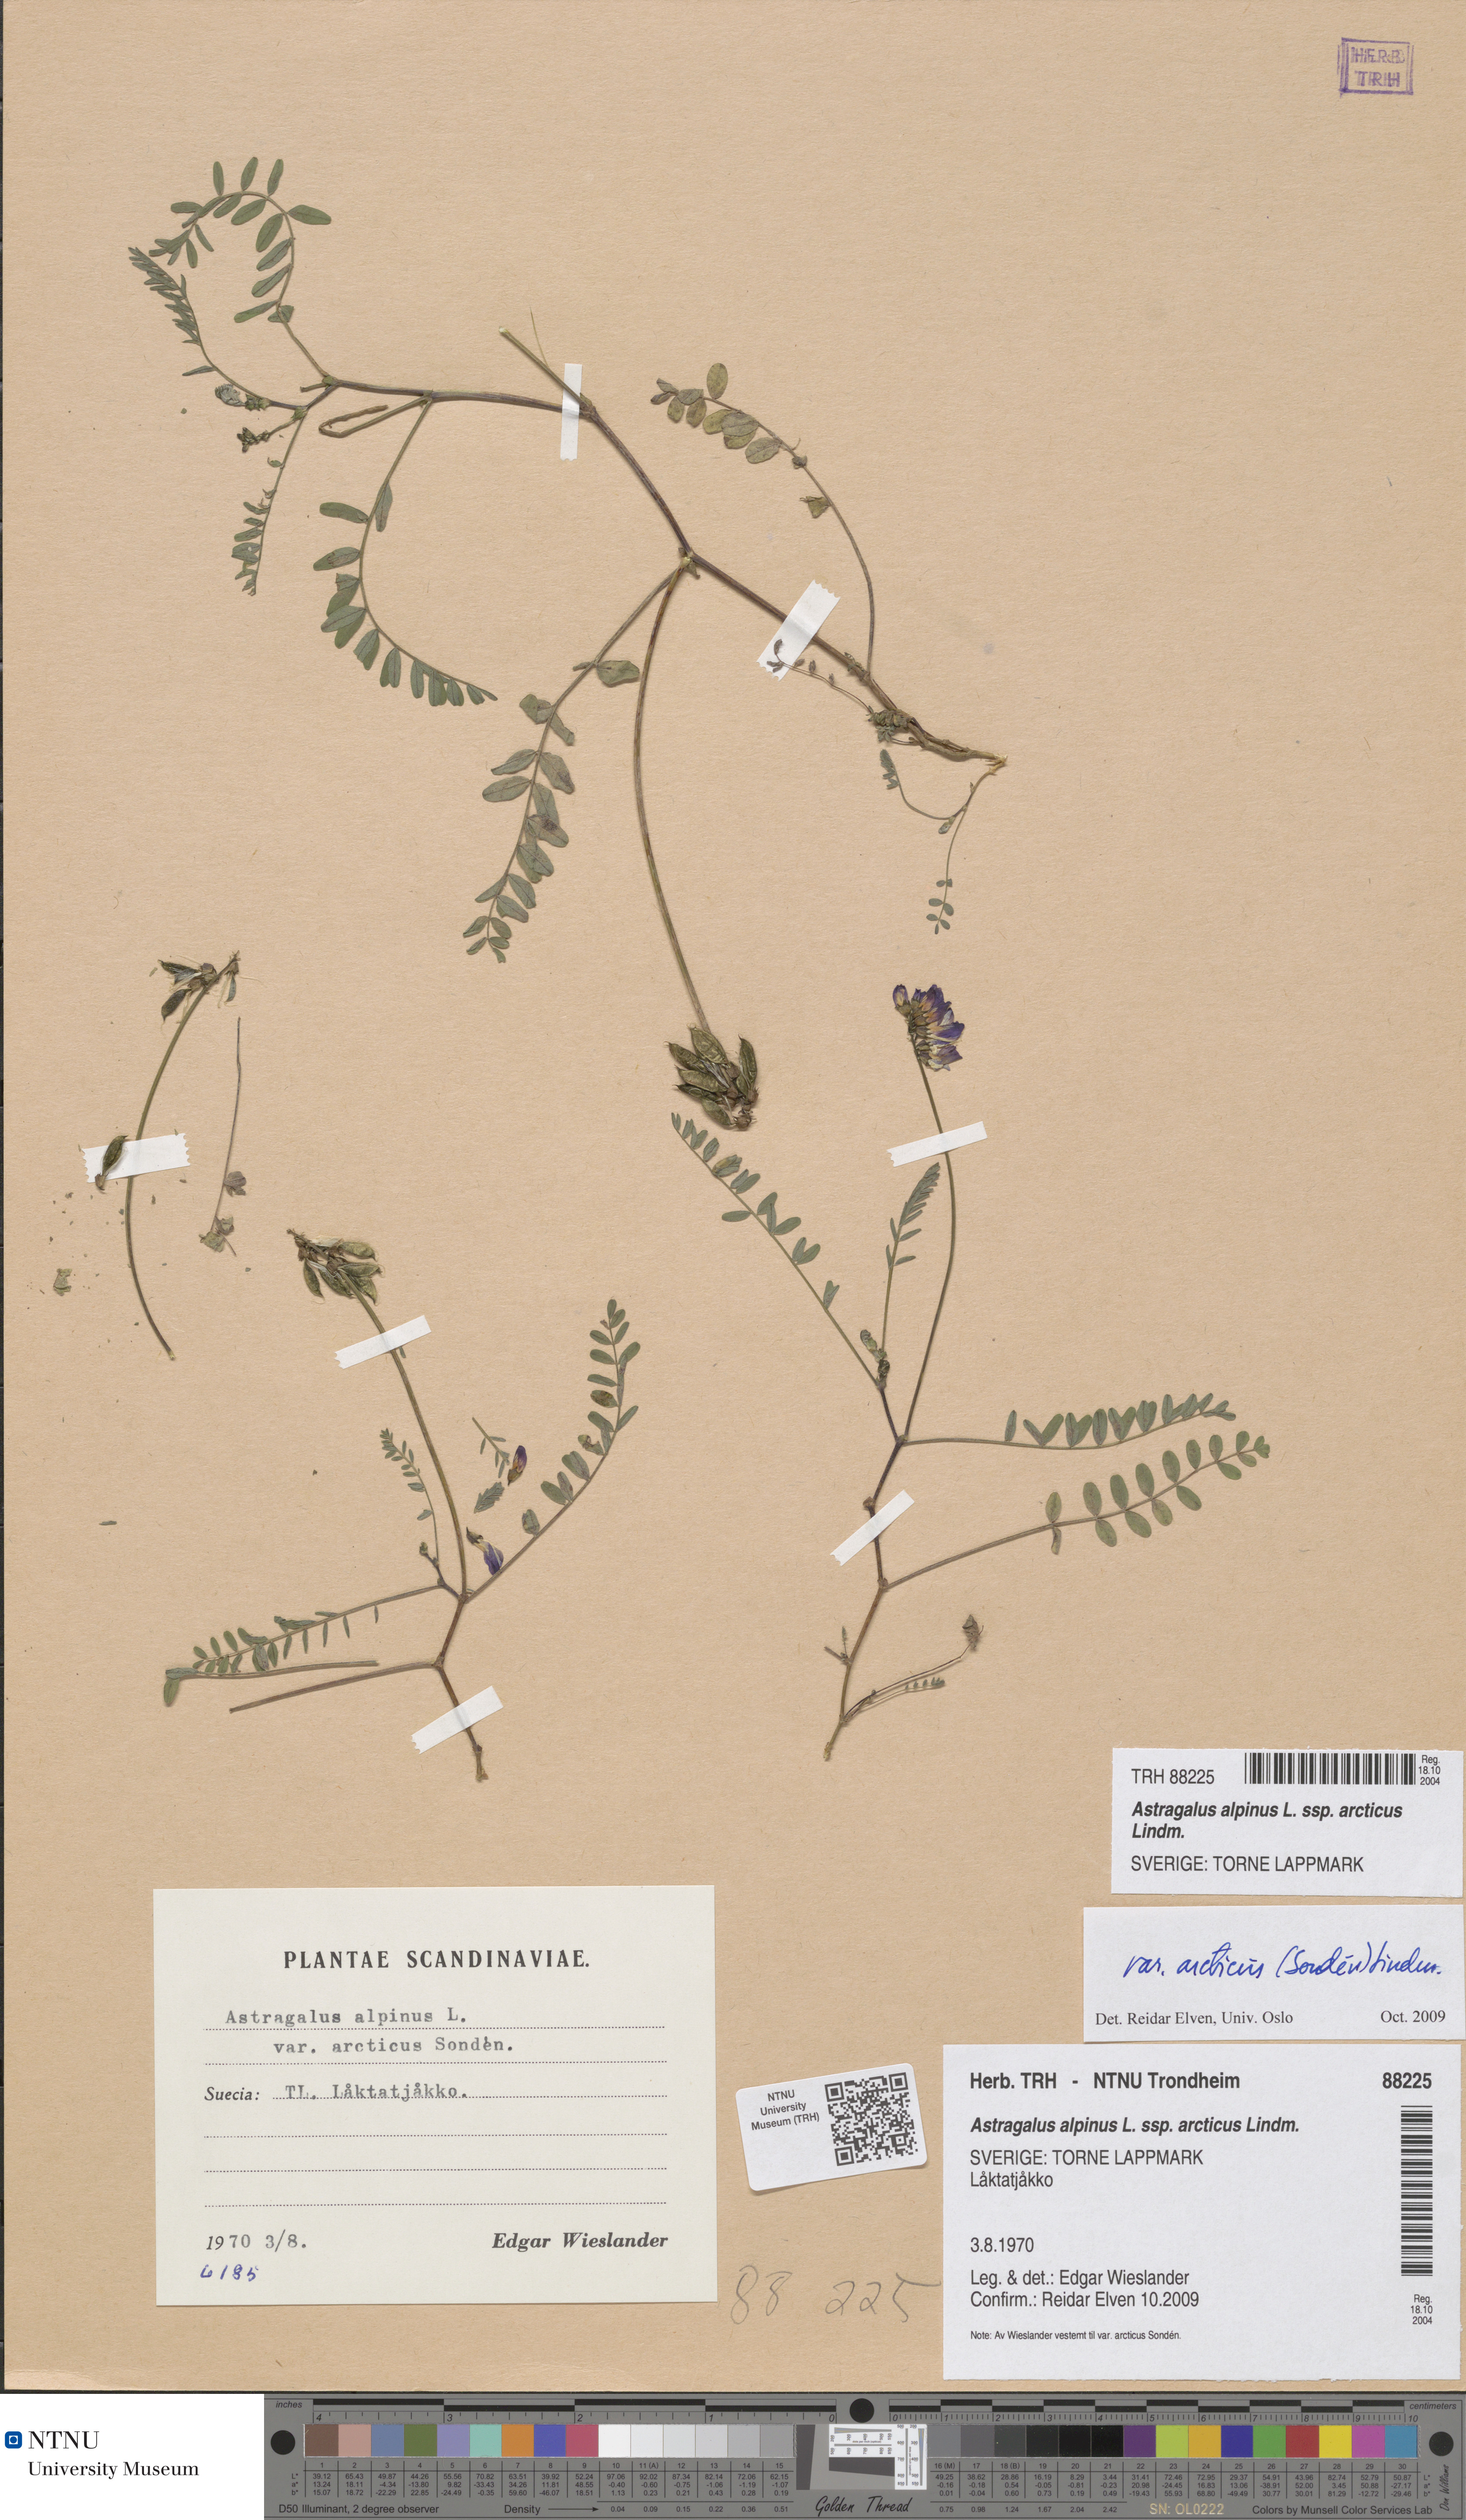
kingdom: Plantae
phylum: Tracheophyta
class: Magnoliopsida
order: Fabales
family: Fabaceae
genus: Astragalus
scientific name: Astragalus norvegicus
